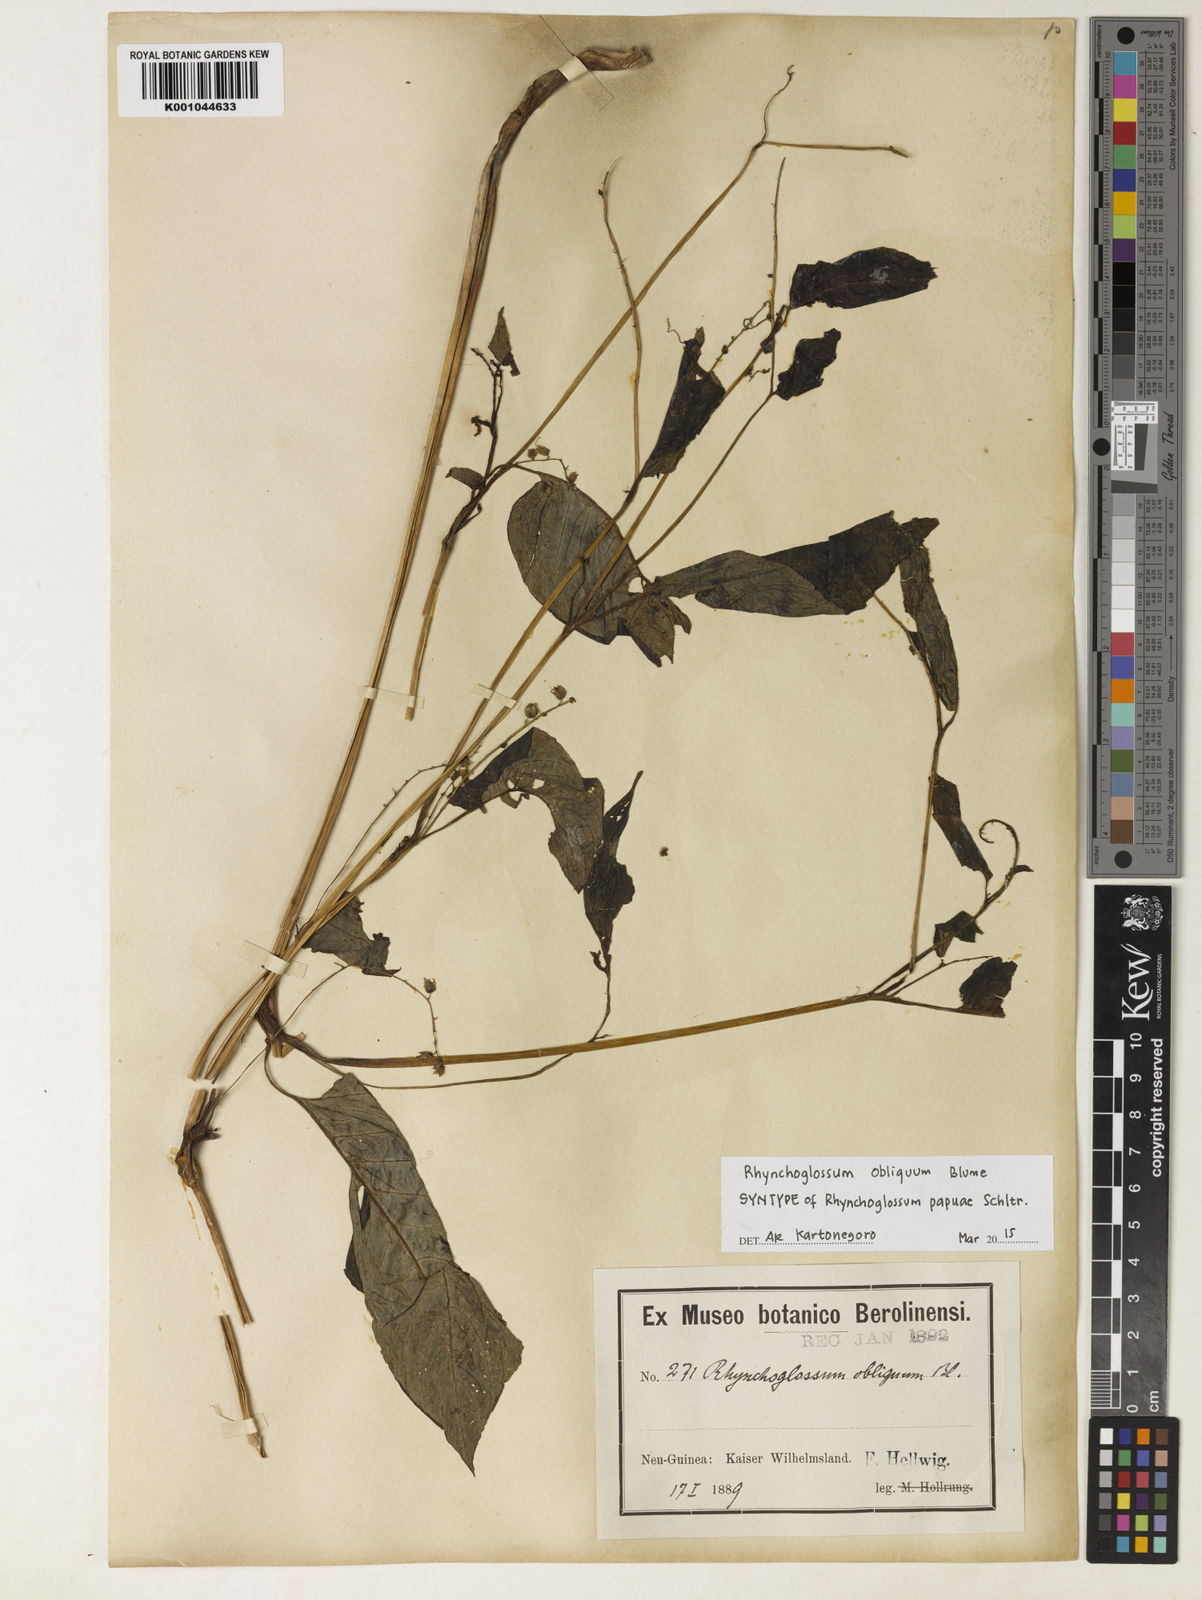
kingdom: Plantae
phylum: Tracheophyta
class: Magnoliopsida
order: Lamiales
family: Gesneriaceae
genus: Rhynchoglossum
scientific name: Rhynchoglossum obliquum
